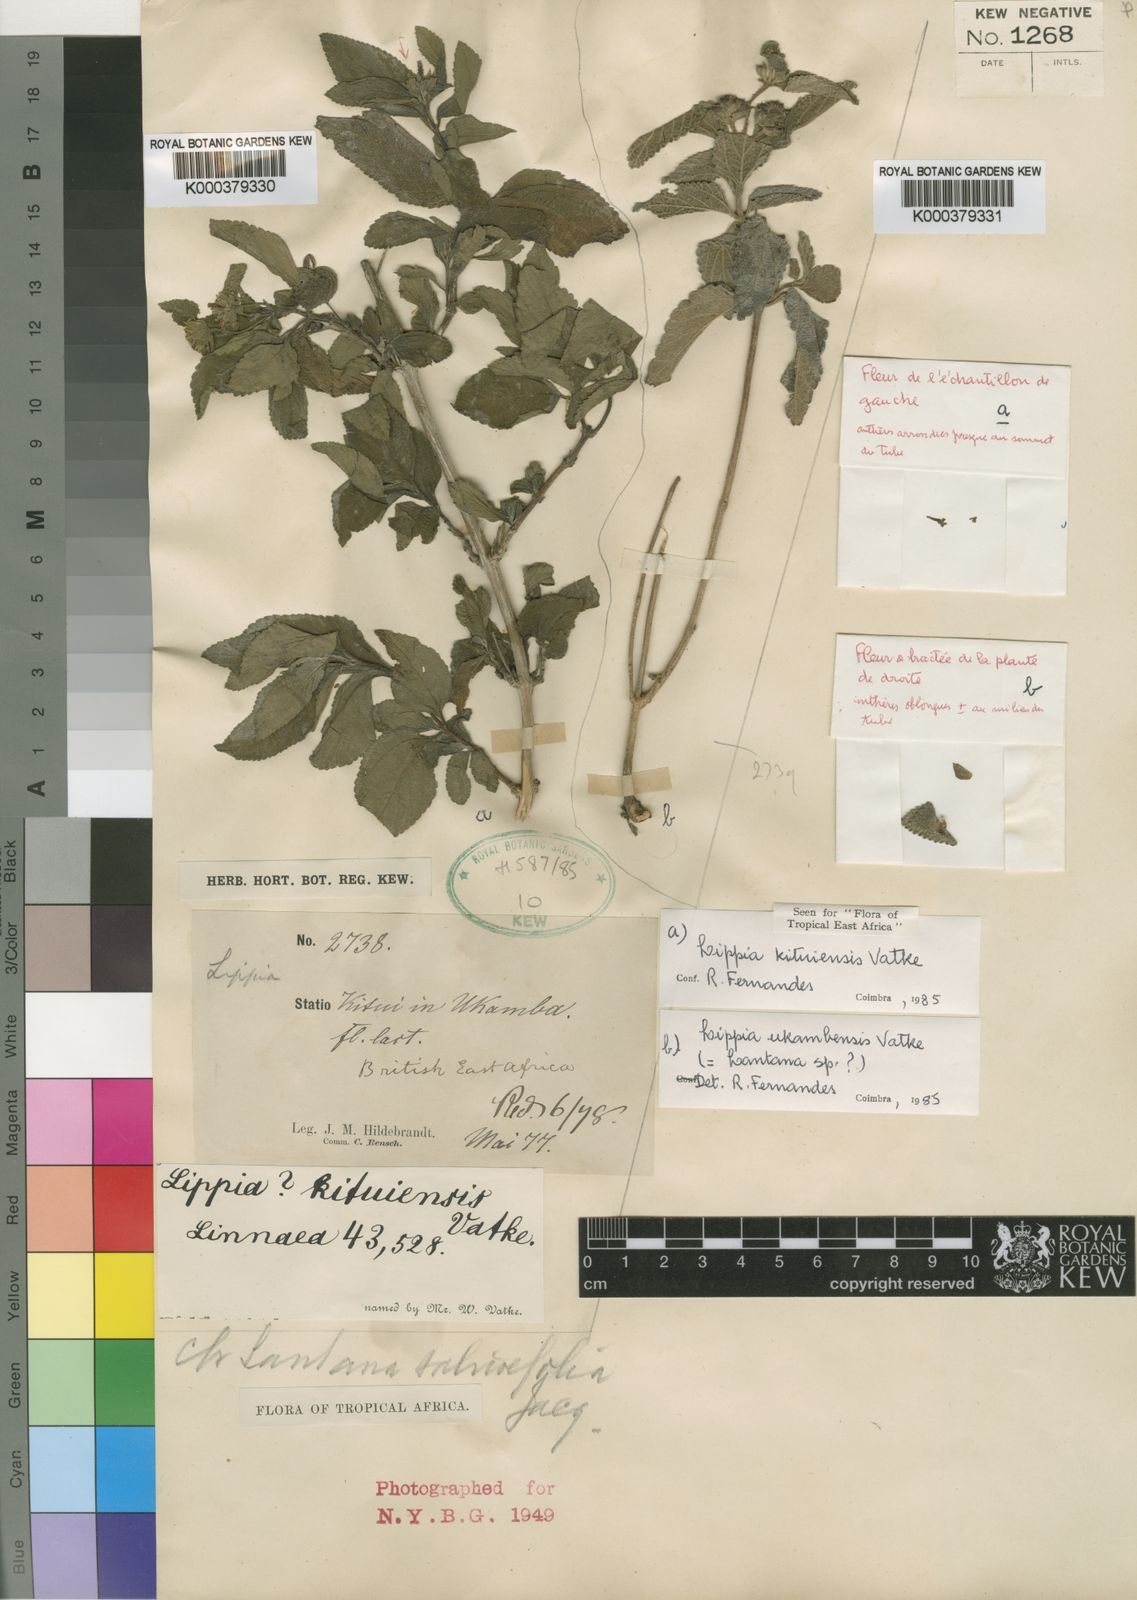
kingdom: Plantae
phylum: Tracheophyta
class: Magnoliopsida
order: Lamiales
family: Verbenaceae
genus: Lantana
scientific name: Lantana ukambensis
